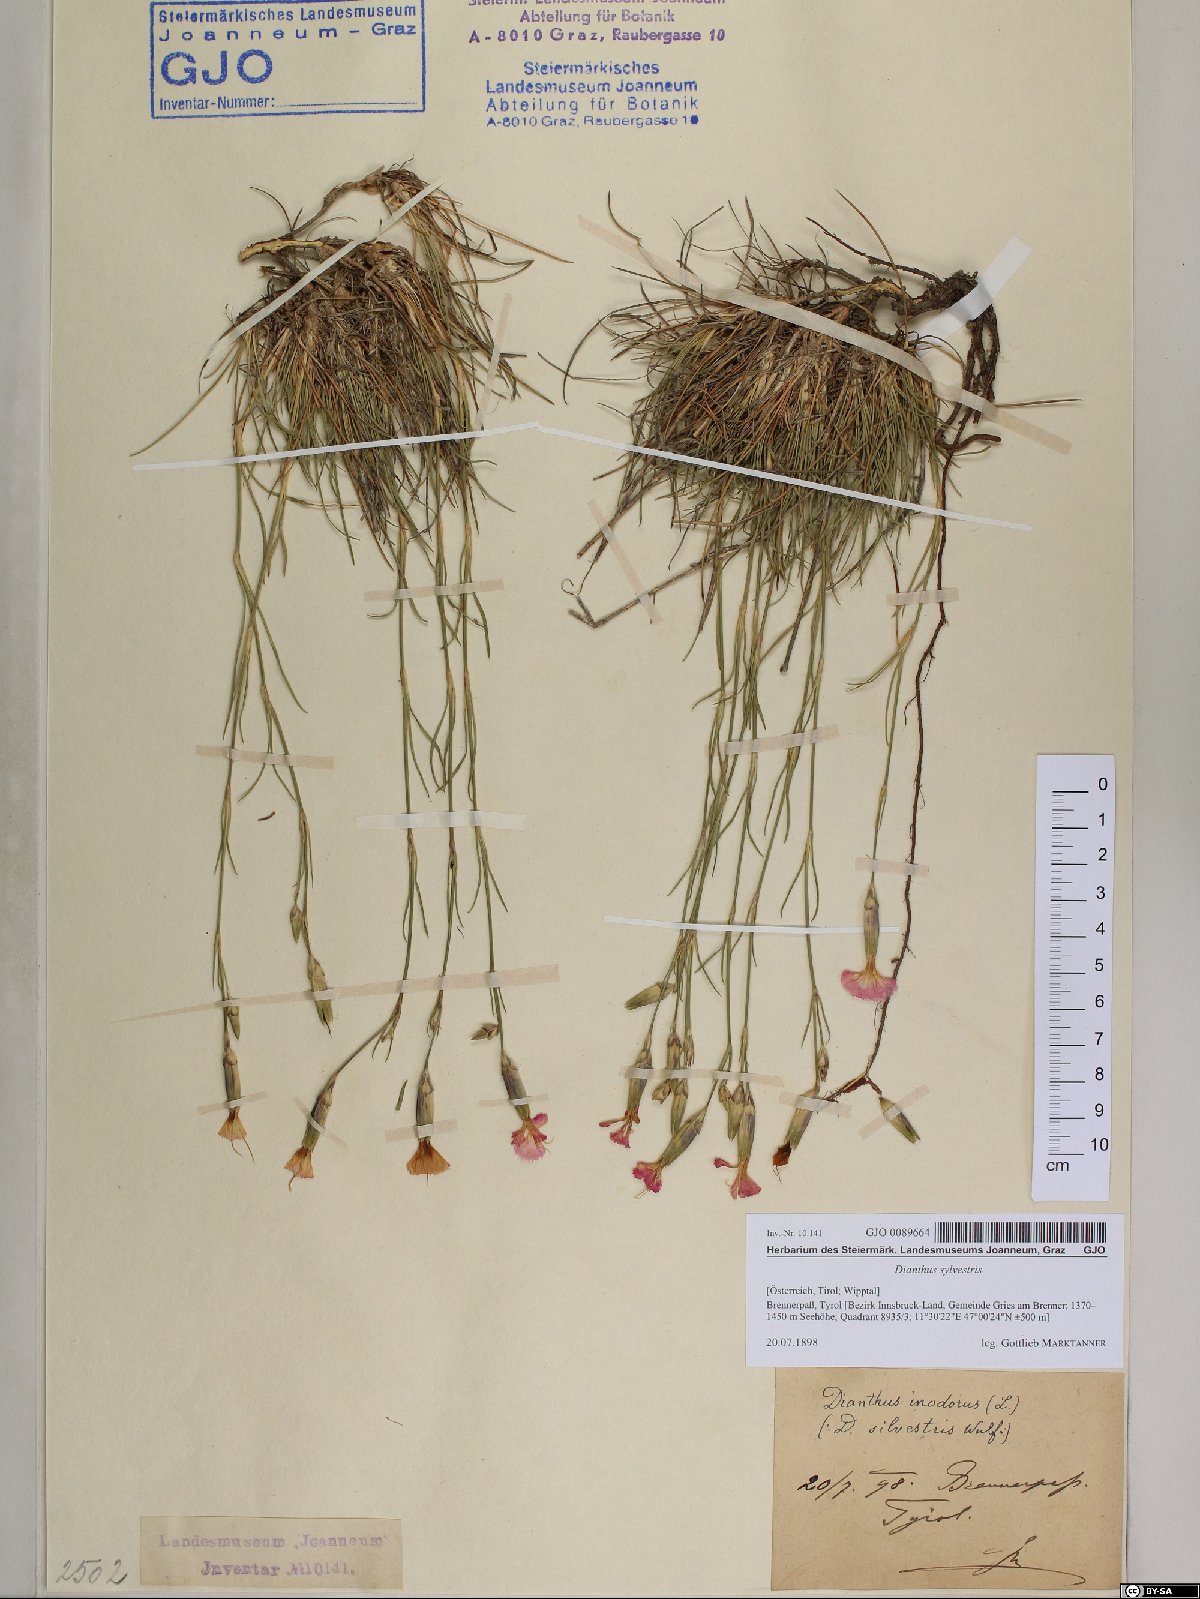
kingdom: Plantae
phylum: Tracheophyta
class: Magnoliopsida
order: Caryophyllales
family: Caryophyllaceae
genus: Dianthus
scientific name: Dianthus sylvestris
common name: Wood pink
